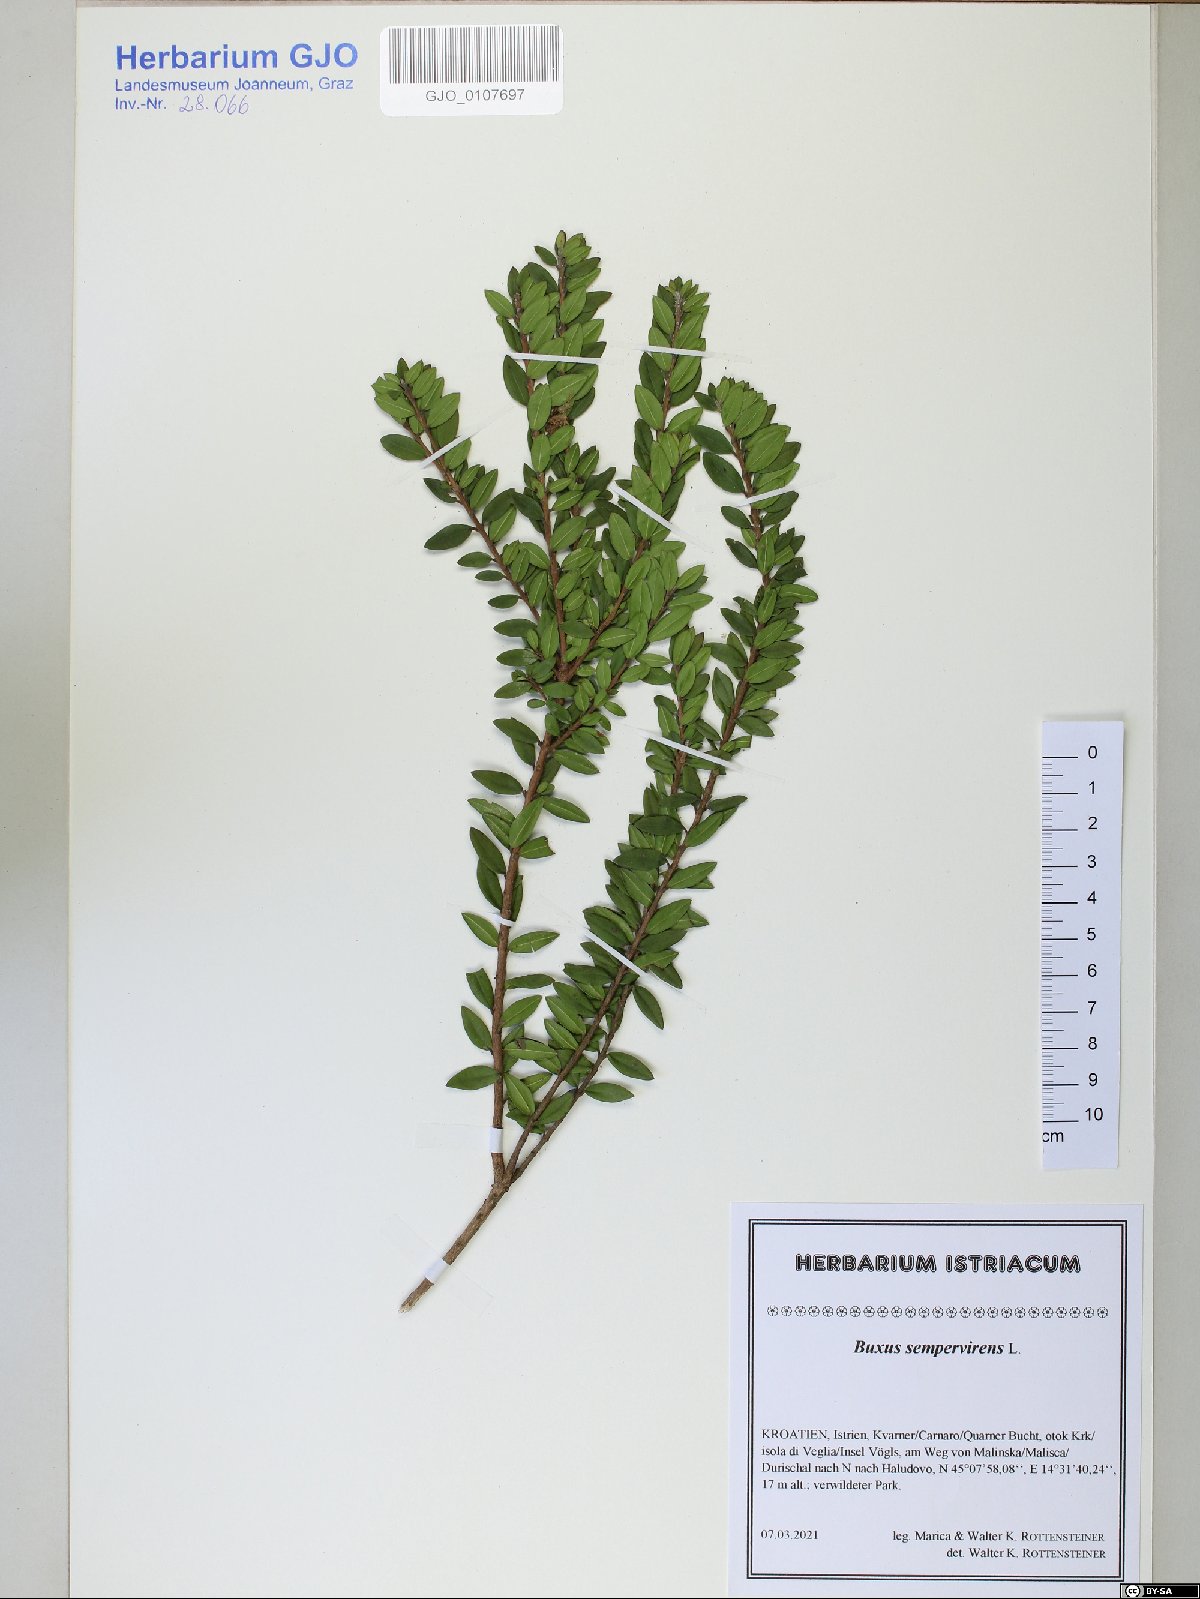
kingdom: Plantae
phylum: Tracheophyta
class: Magnoliopsida
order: Buxales
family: Buxaceae
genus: Buxus
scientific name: Buxus sempervirens
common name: Box
